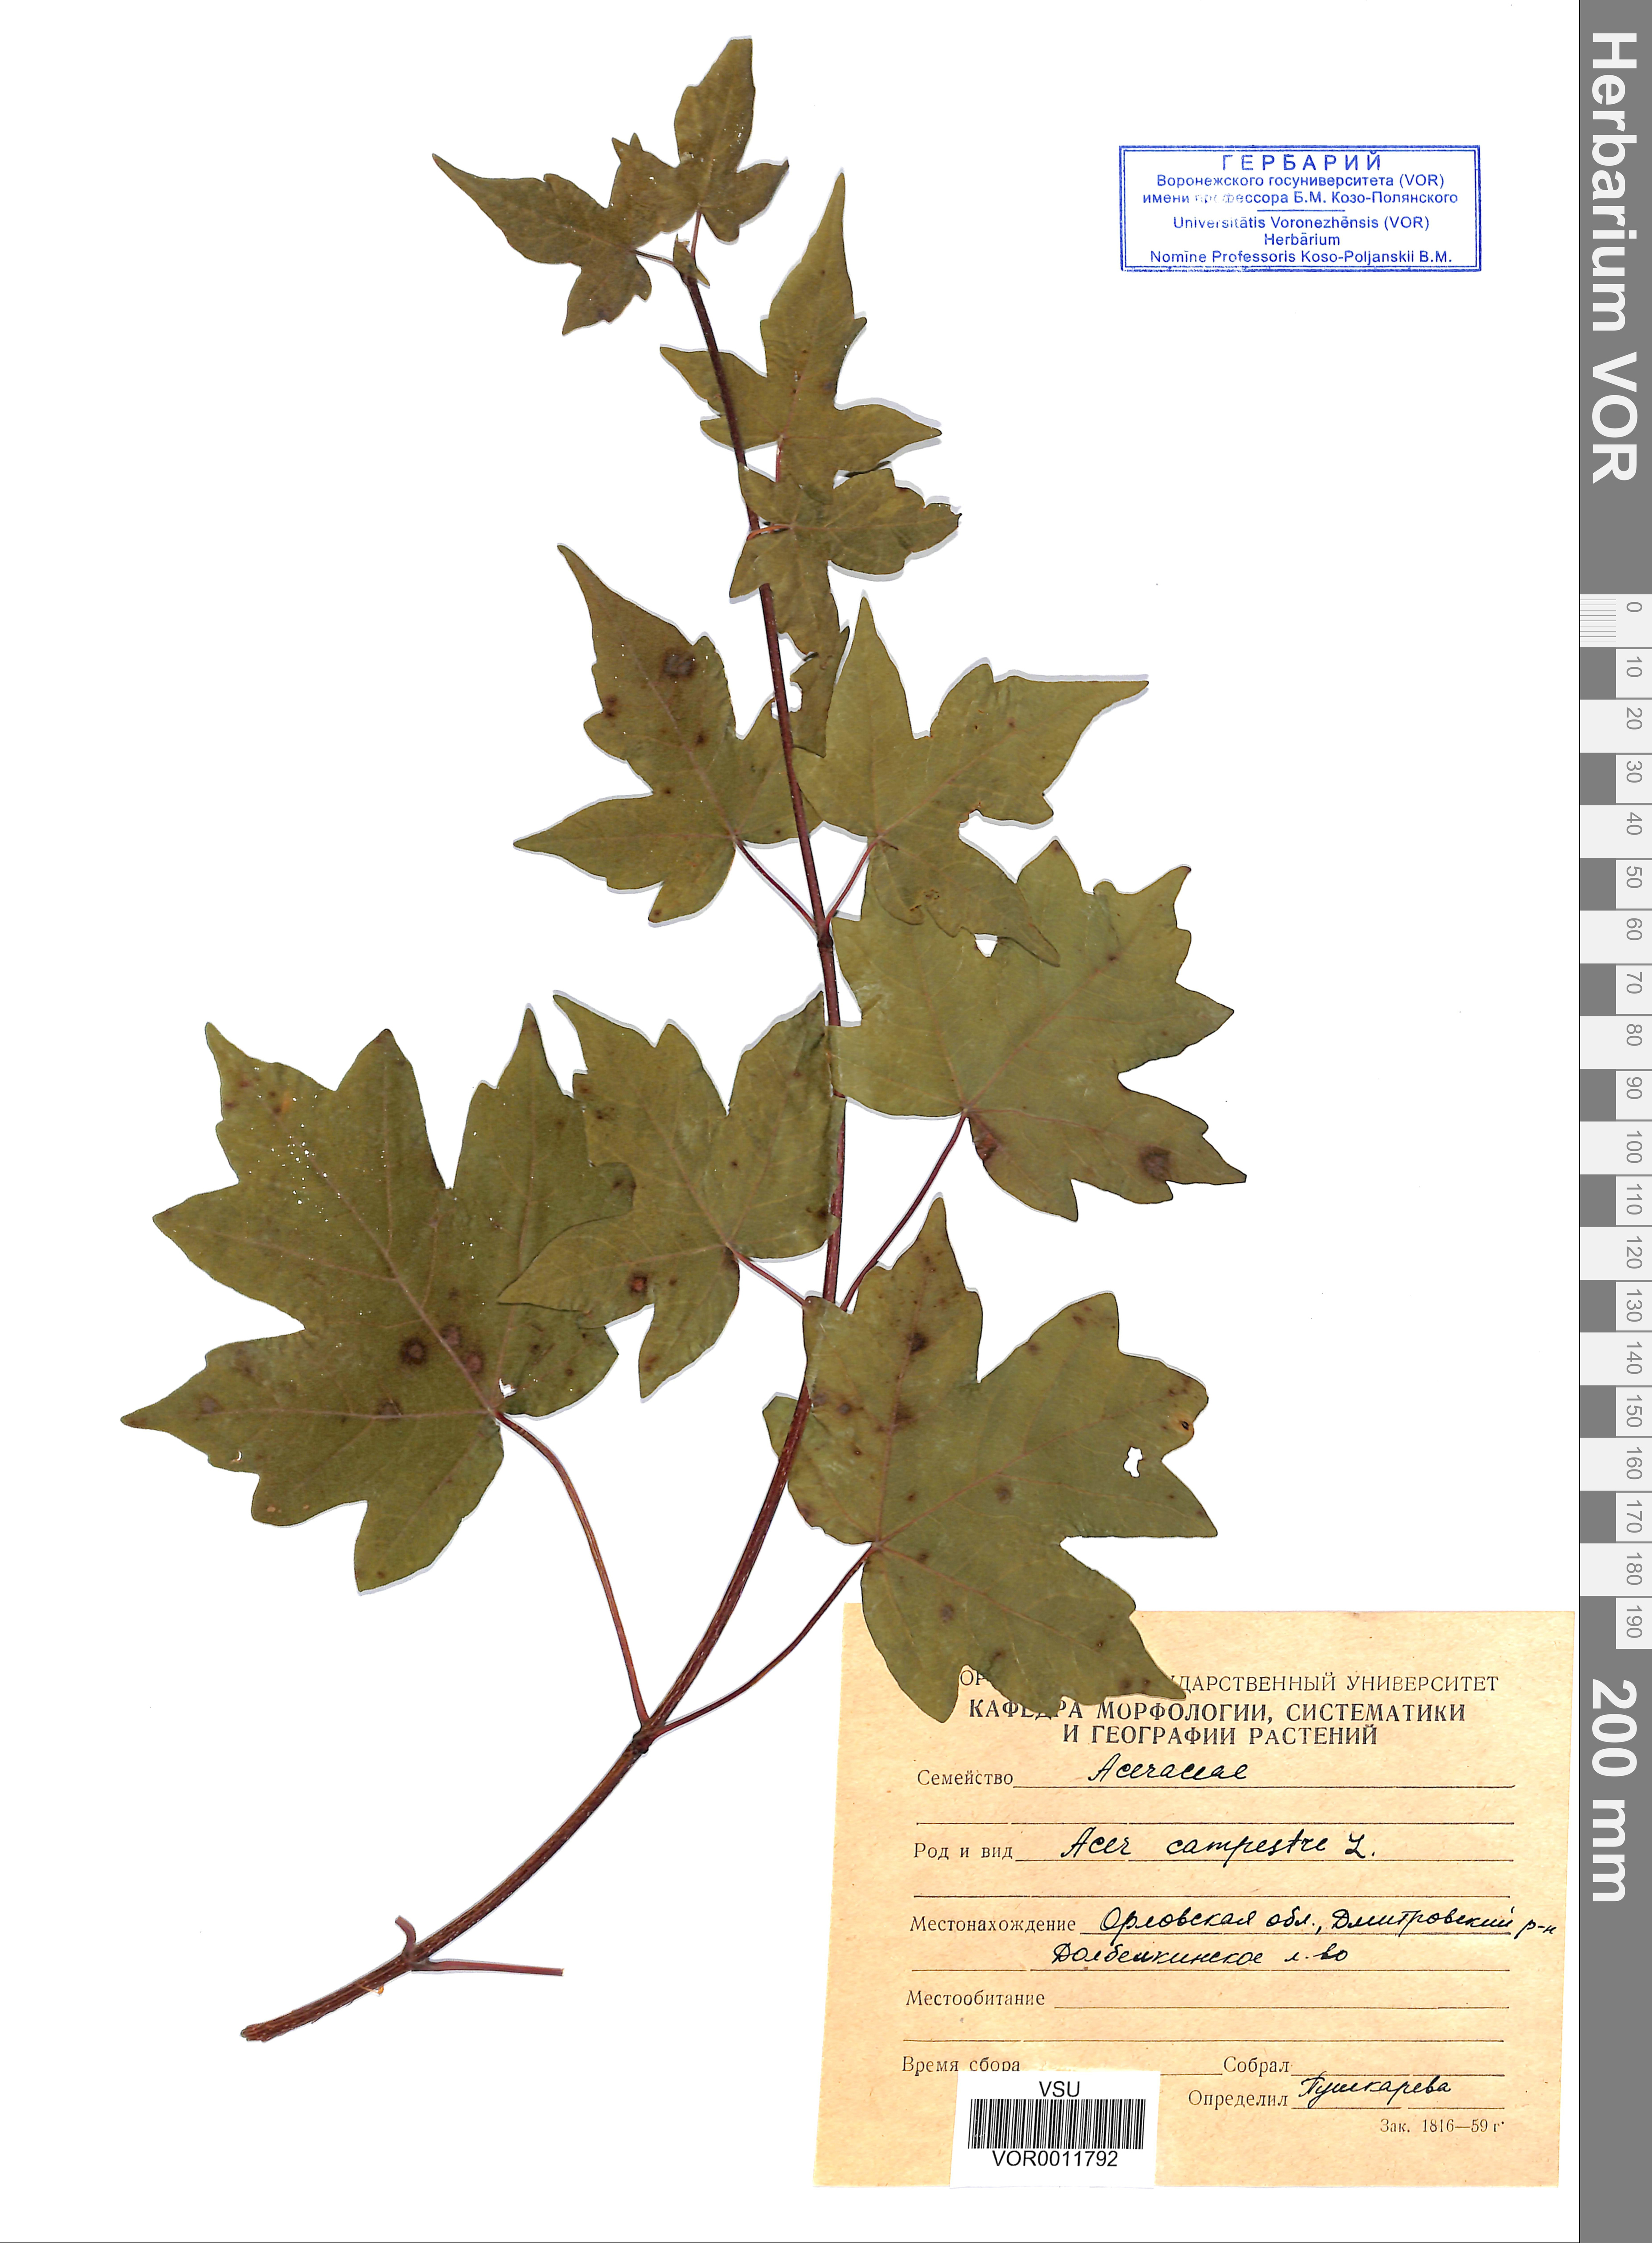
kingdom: Plantae
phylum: Tracheophyta
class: Magnoliopsida
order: Sapindales
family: Sapindaceae
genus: Acer
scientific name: Acer campestre
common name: Field maple
